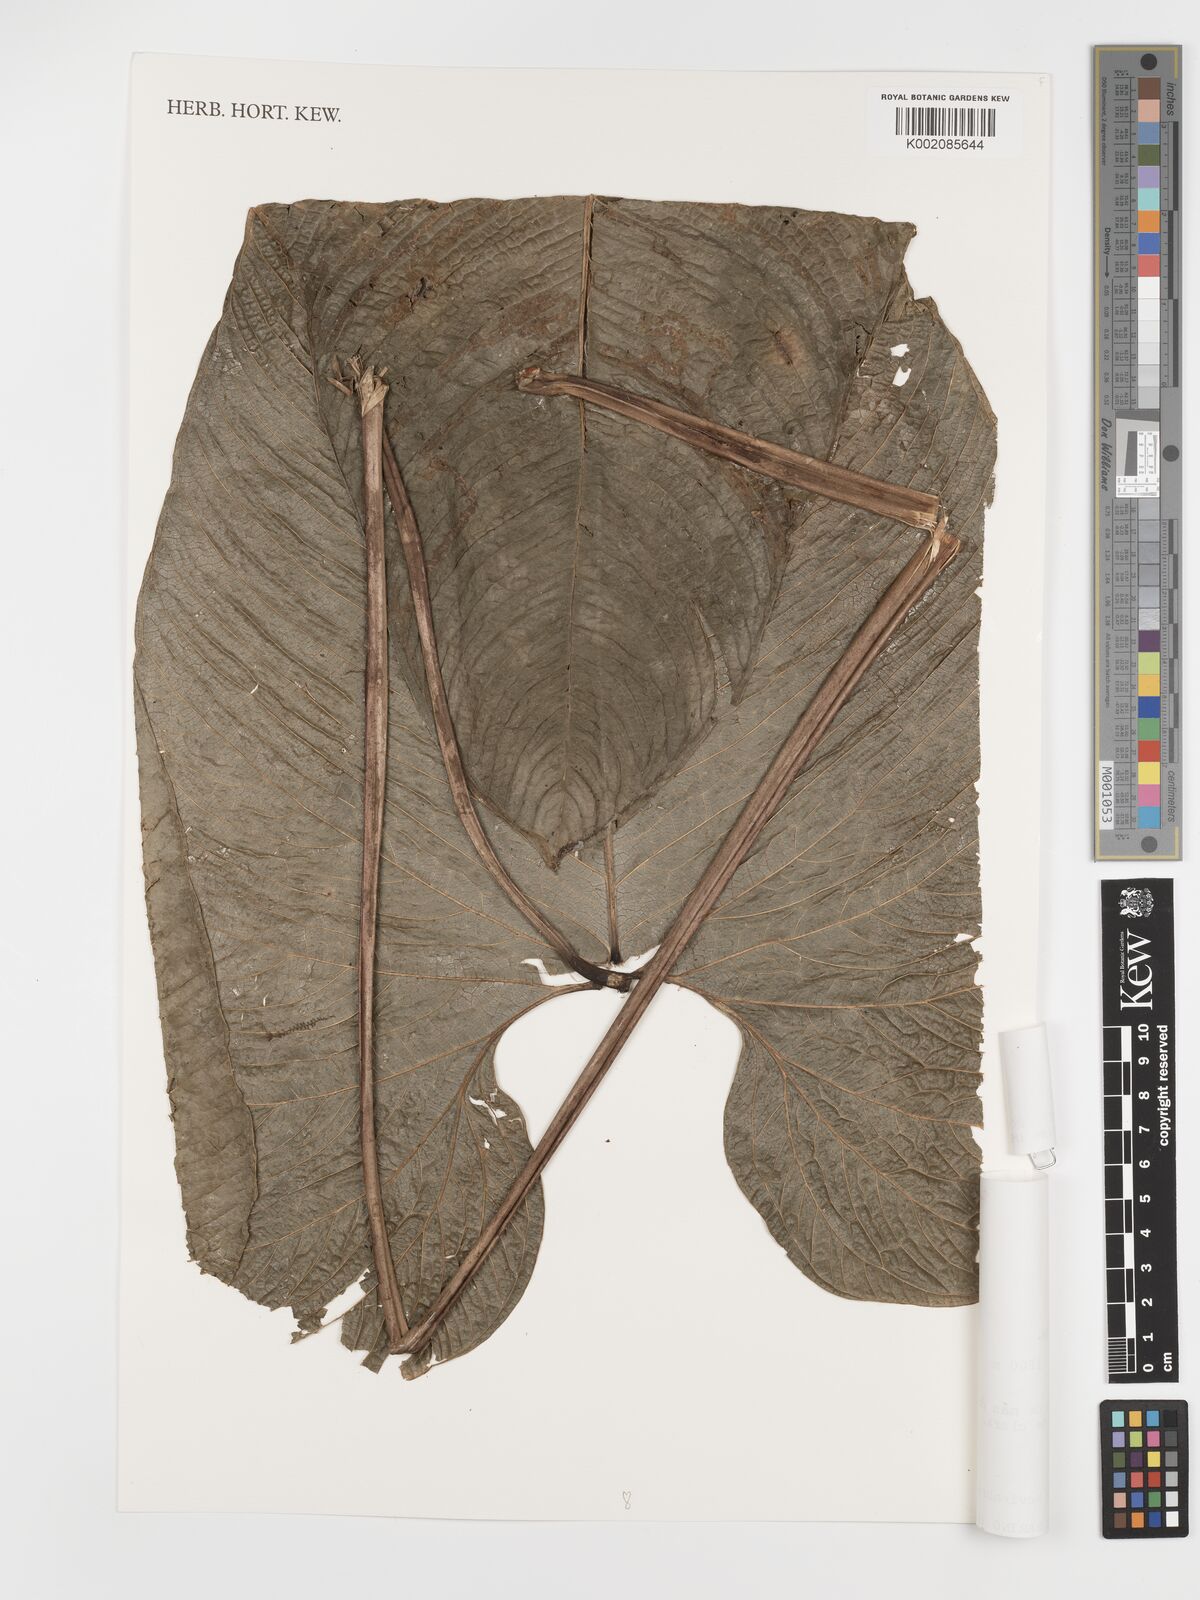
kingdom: Plantae
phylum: Tracheophyta
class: Liliopsida
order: Alismatales
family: Araceae
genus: Anthurium
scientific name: Anthurium bernalii
